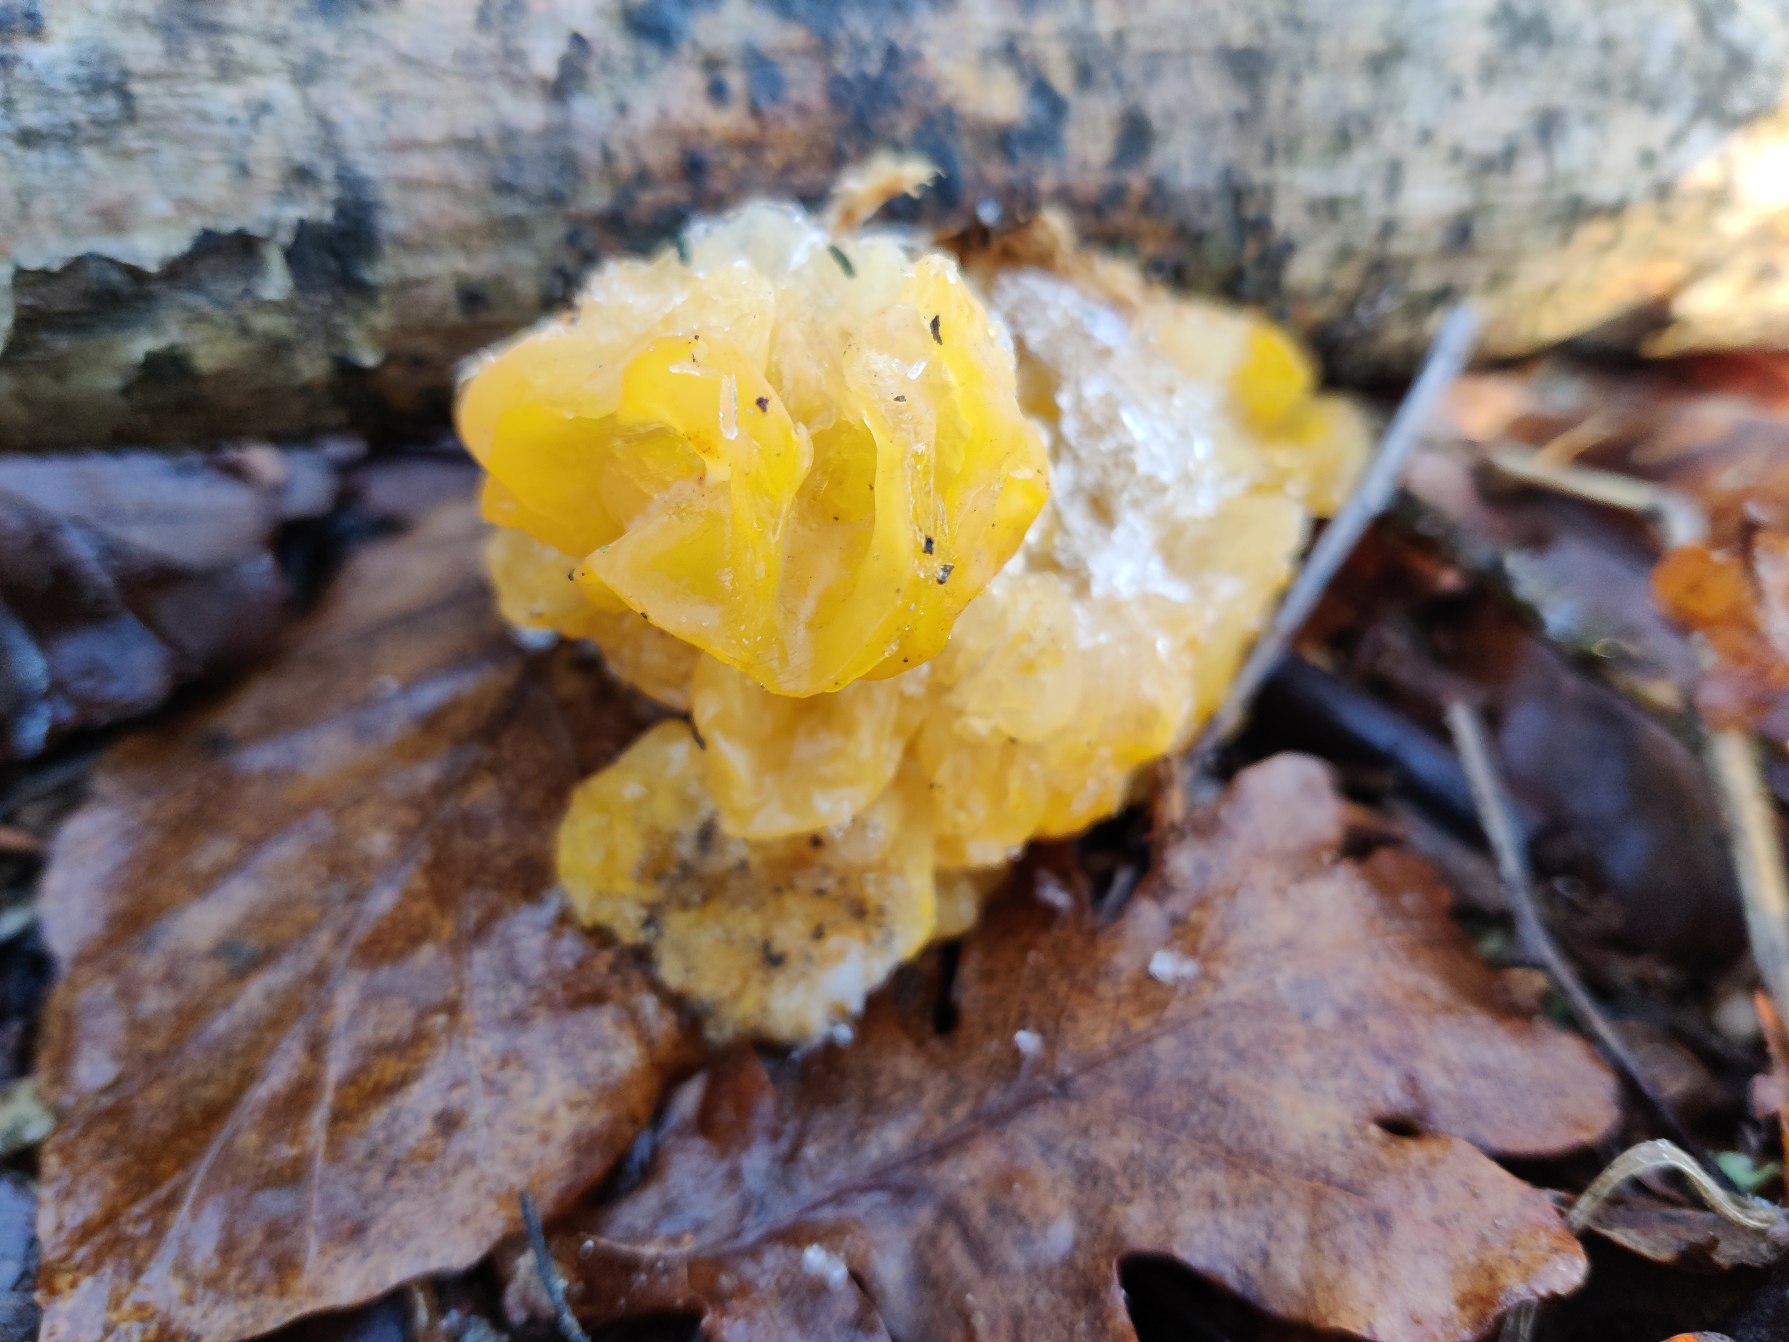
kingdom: Fungi
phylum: Basidiomycota
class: Tremellomycetes
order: Tremellales
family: Tremellaceae
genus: Tremella
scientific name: Tremella mesenterica
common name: Gul bævresvamp
